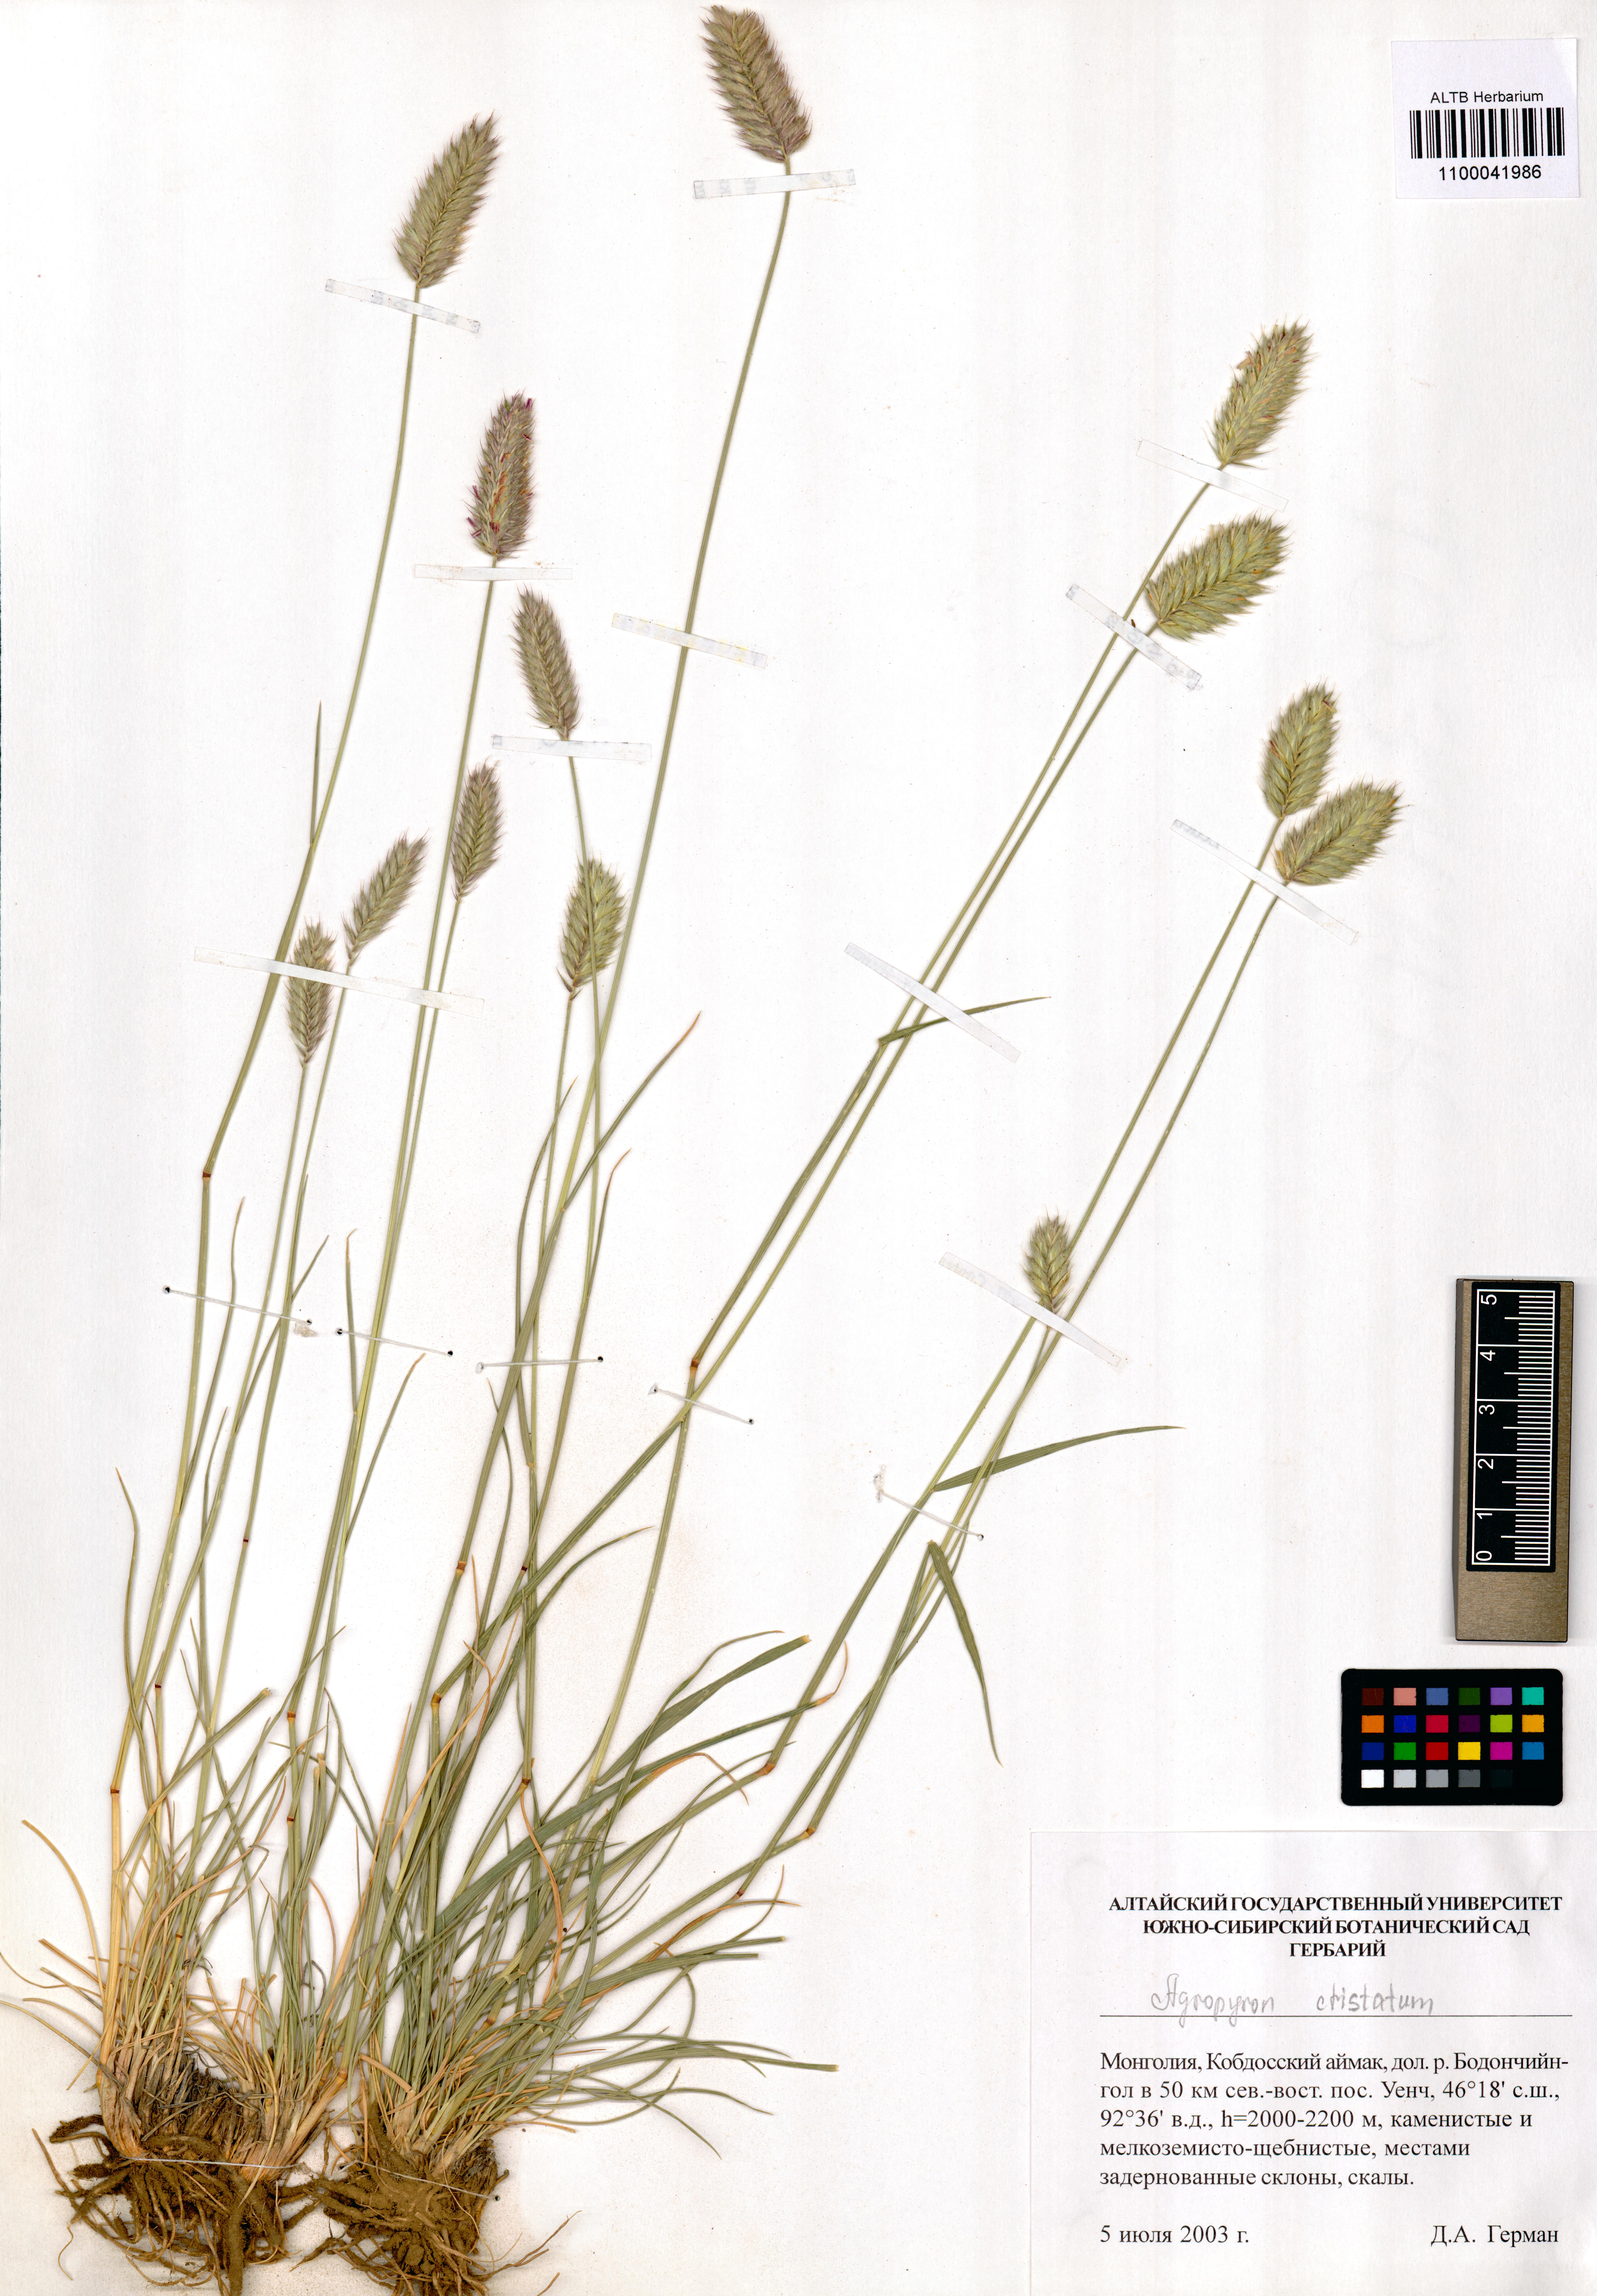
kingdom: Plantae
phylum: Tracheophyta
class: Liliopsida
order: Poales
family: Poaceae
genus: Agropyron
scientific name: Agropyron cristatum
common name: Crested wheatgrass
